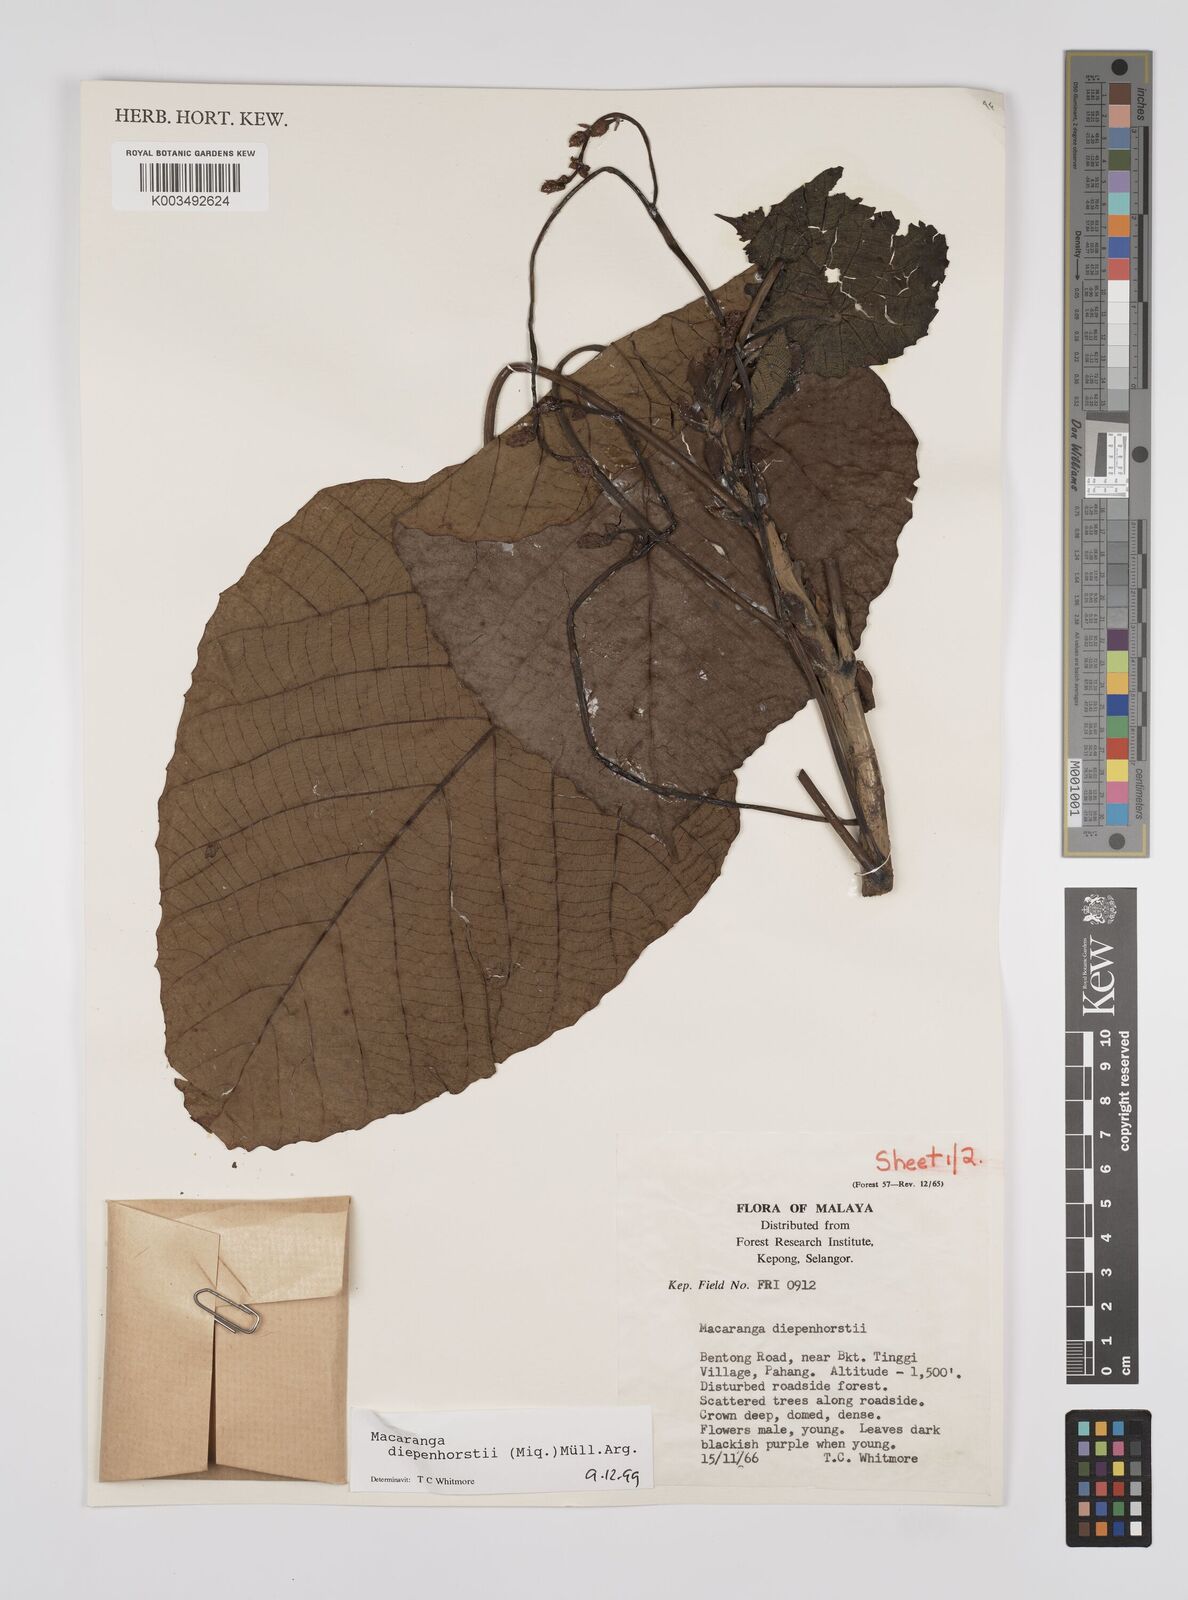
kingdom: Plantae
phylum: Tracheophyta
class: Magnoliopsida
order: Malpighiales
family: Euphorbiaceae
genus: Macaranga
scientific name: Macaranga diepenhorstii
